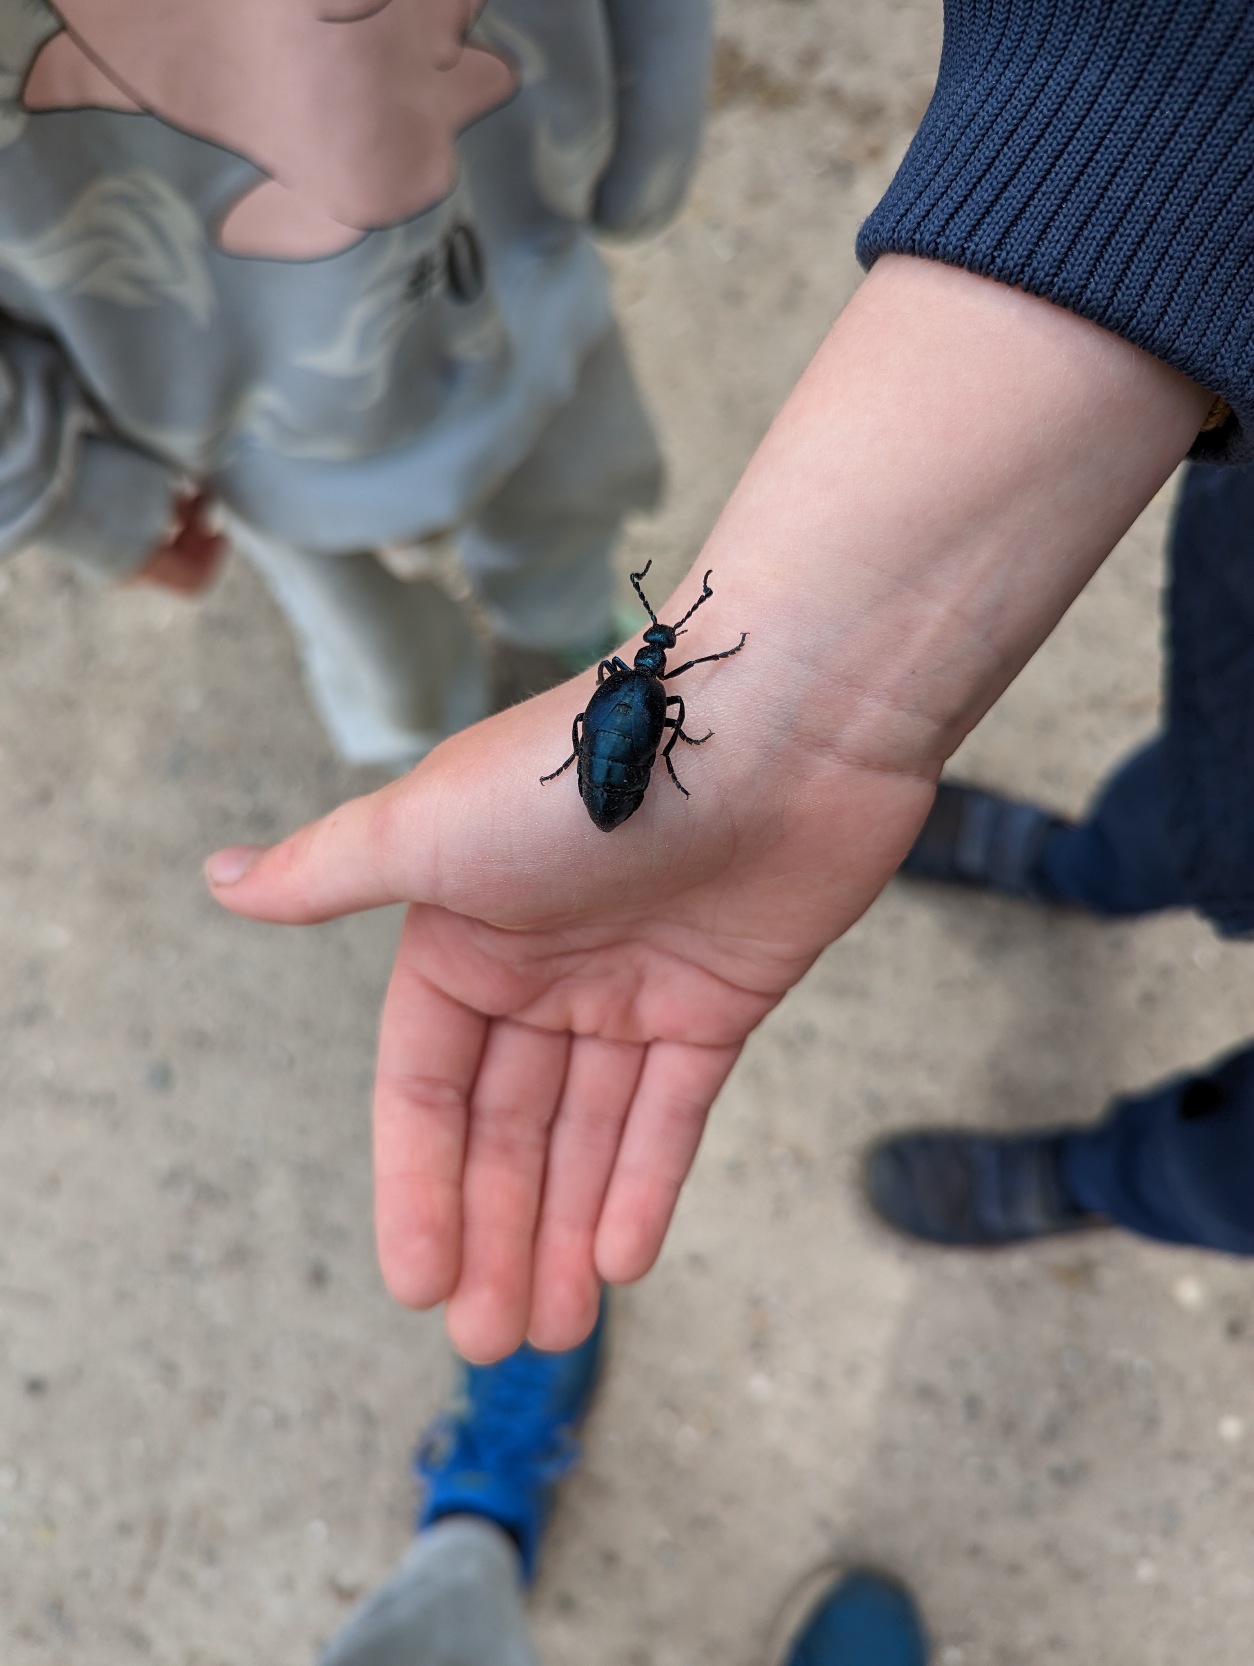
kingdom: Animalia
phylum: Arthropoda
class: Insecta
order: Coleoptera
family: Meloidae
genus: Meloe
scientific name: Meloe violaceus
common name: Blå oliebille
